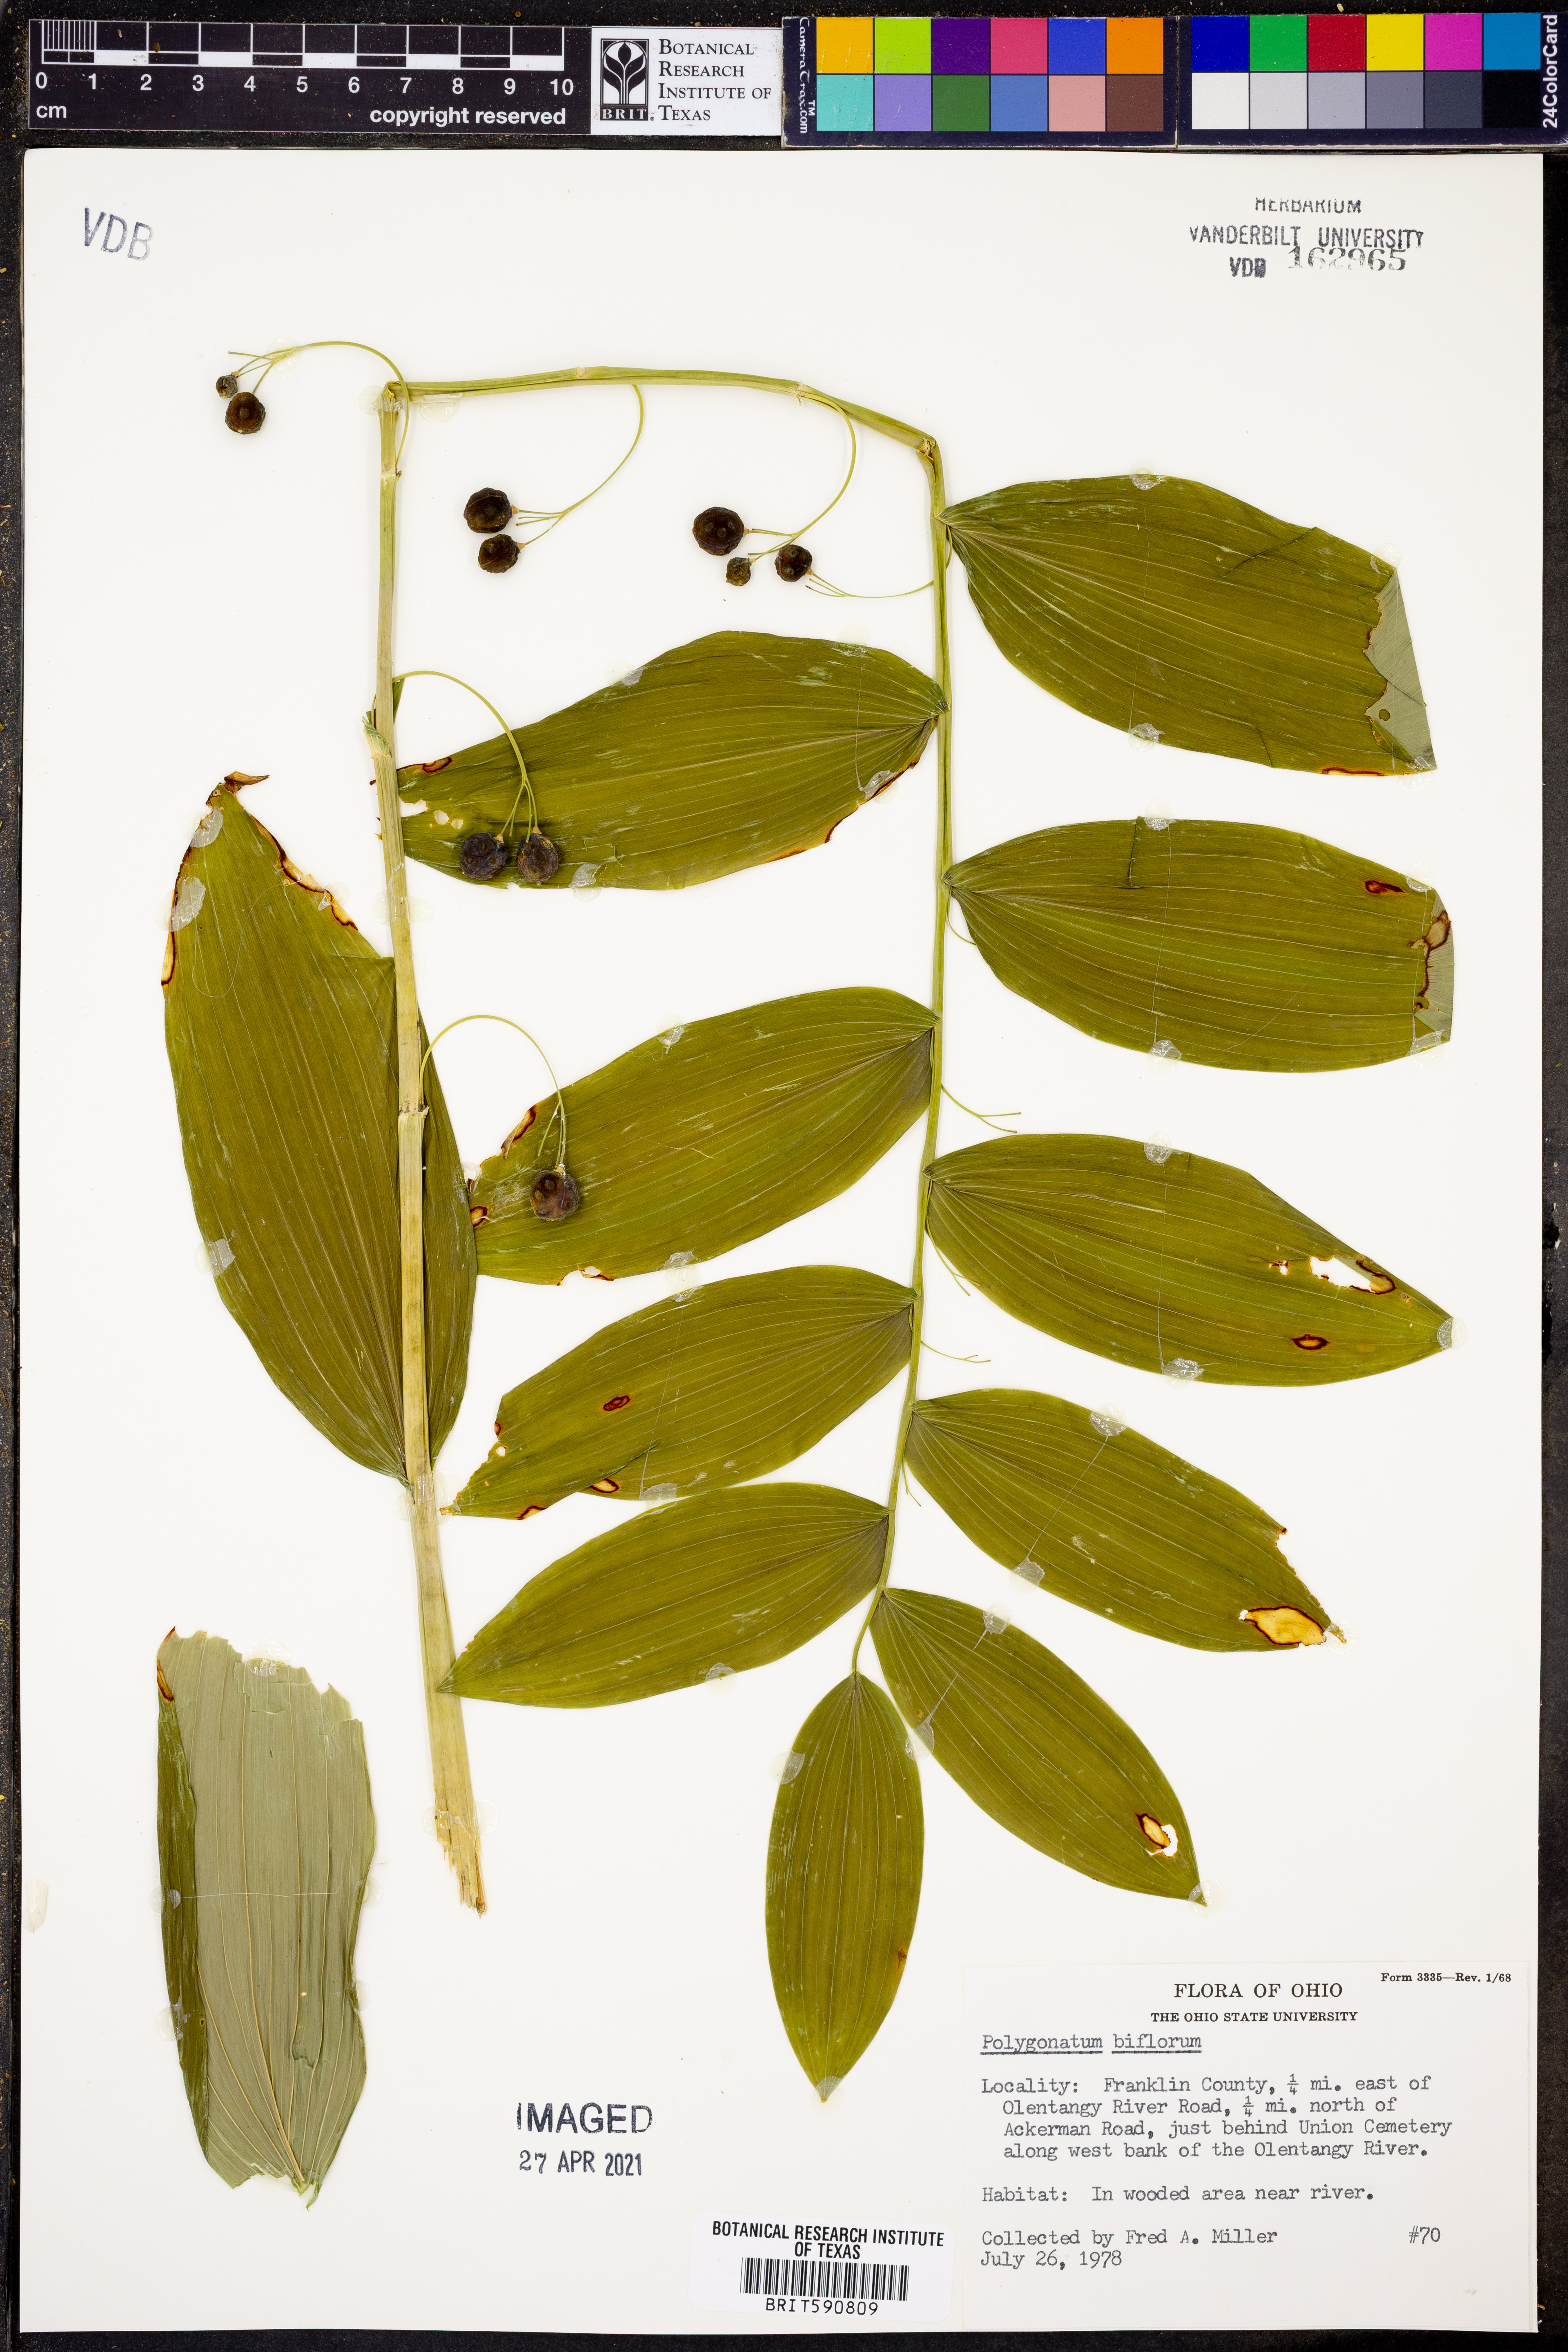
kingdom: Plantae
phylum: Tracheophyta
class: Liliopsida
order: Asparagales
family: Asparagaceae
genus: Polygonatum
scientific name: Polygonatum biflorum
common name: American solomon's-seal
